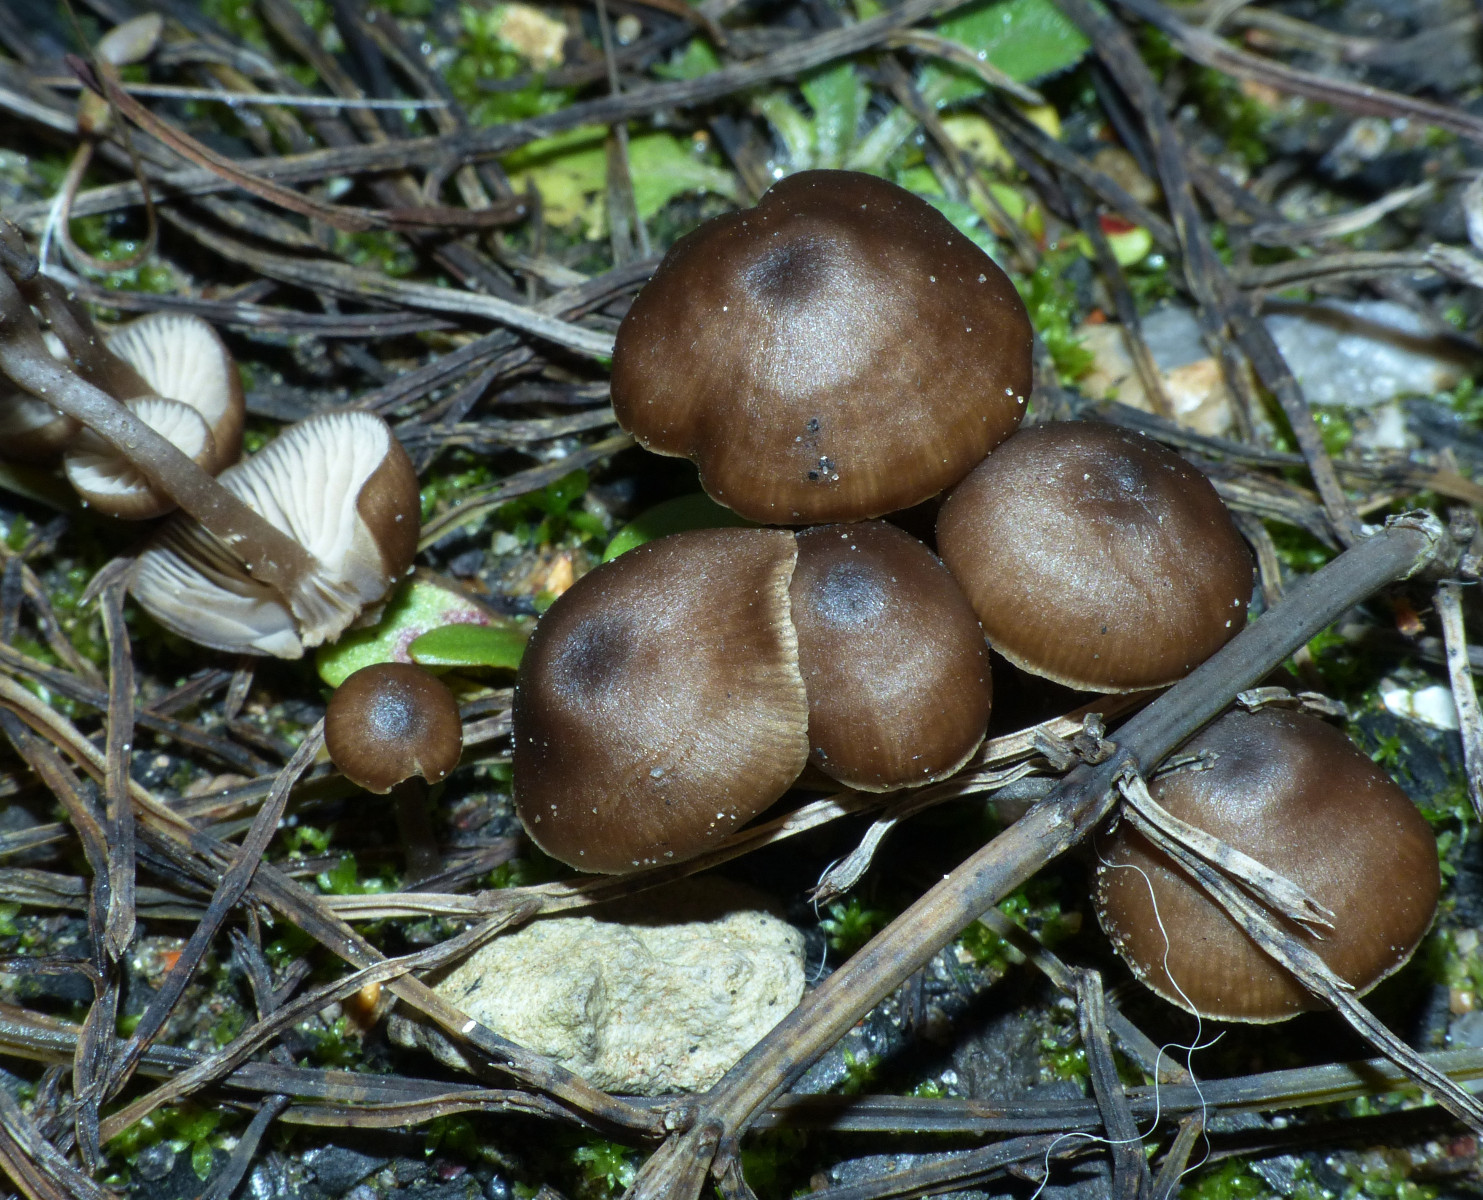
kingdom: Fungi
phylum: Basidiomycota
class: Agaricomycetes
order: Agaricales
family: Lyophyllaceae
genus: Tephrocybe
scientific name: Tephrocybe anthracophila
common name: svedje-gråblad
